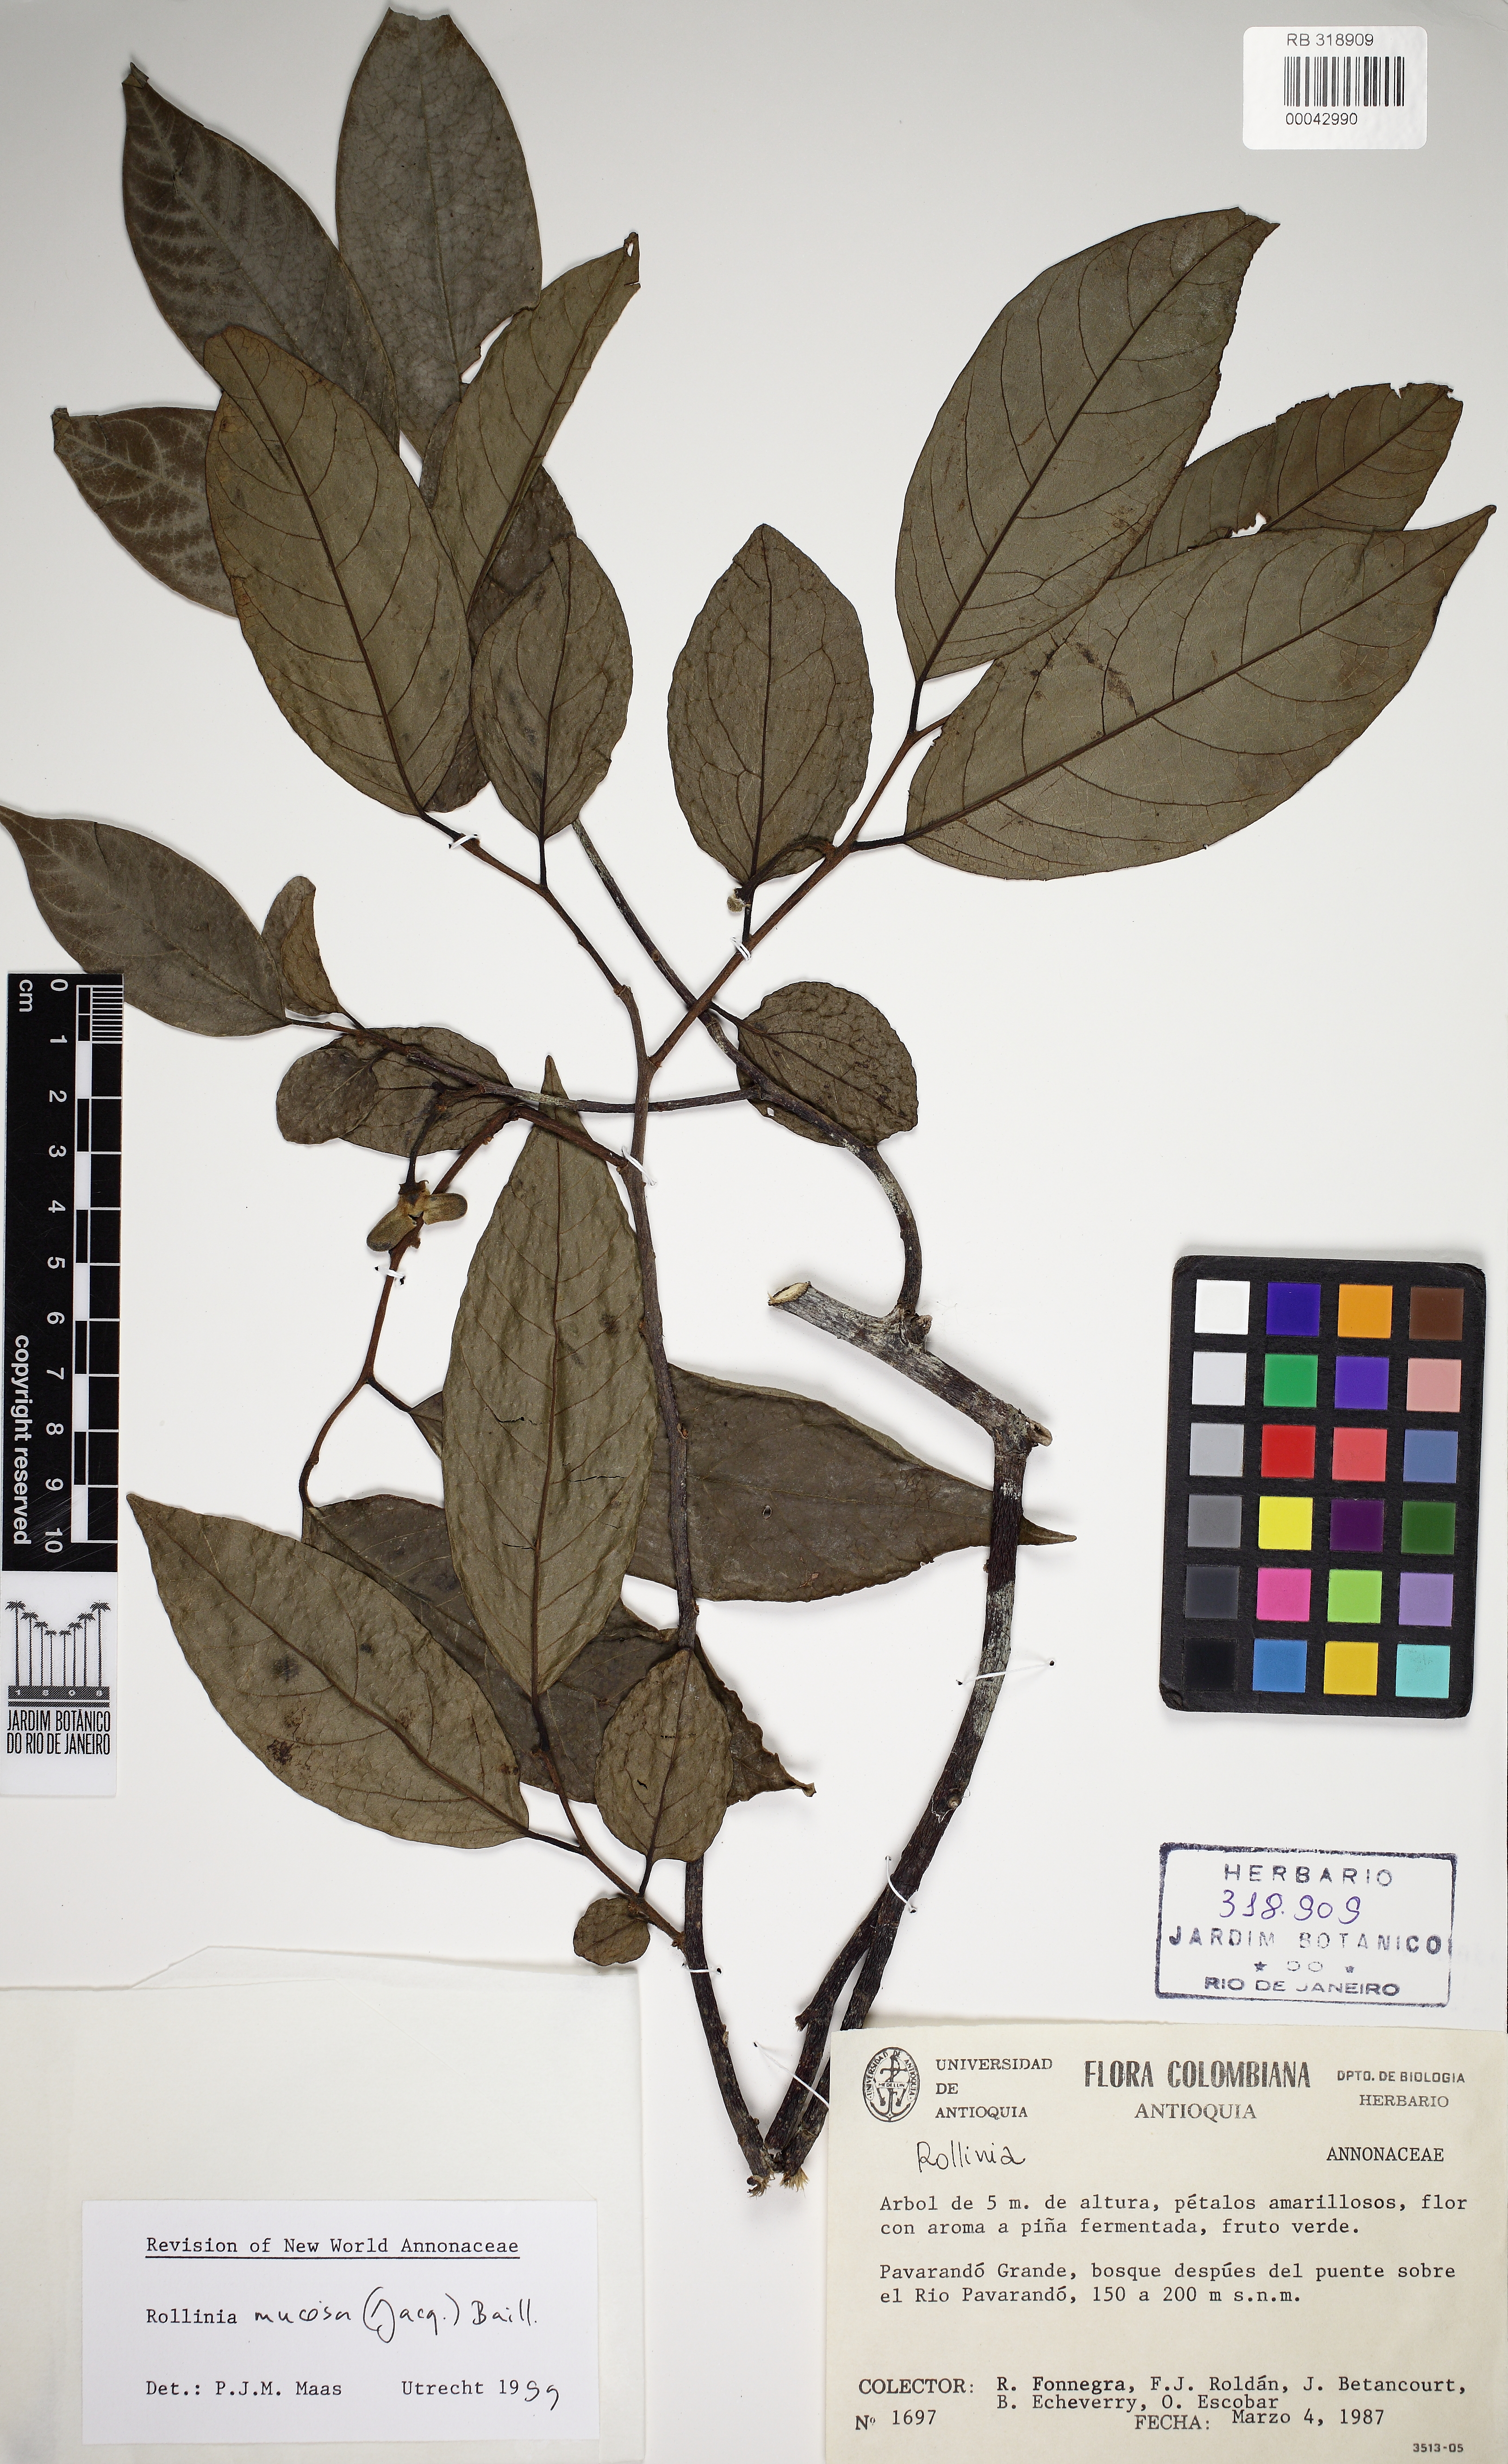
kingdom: Plantae
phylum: Tracheophyta
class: Magnoliopsida
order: Magnoliales
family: Annonaceae
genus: Annona
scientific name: Annona mucosa
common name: Sugar apple
